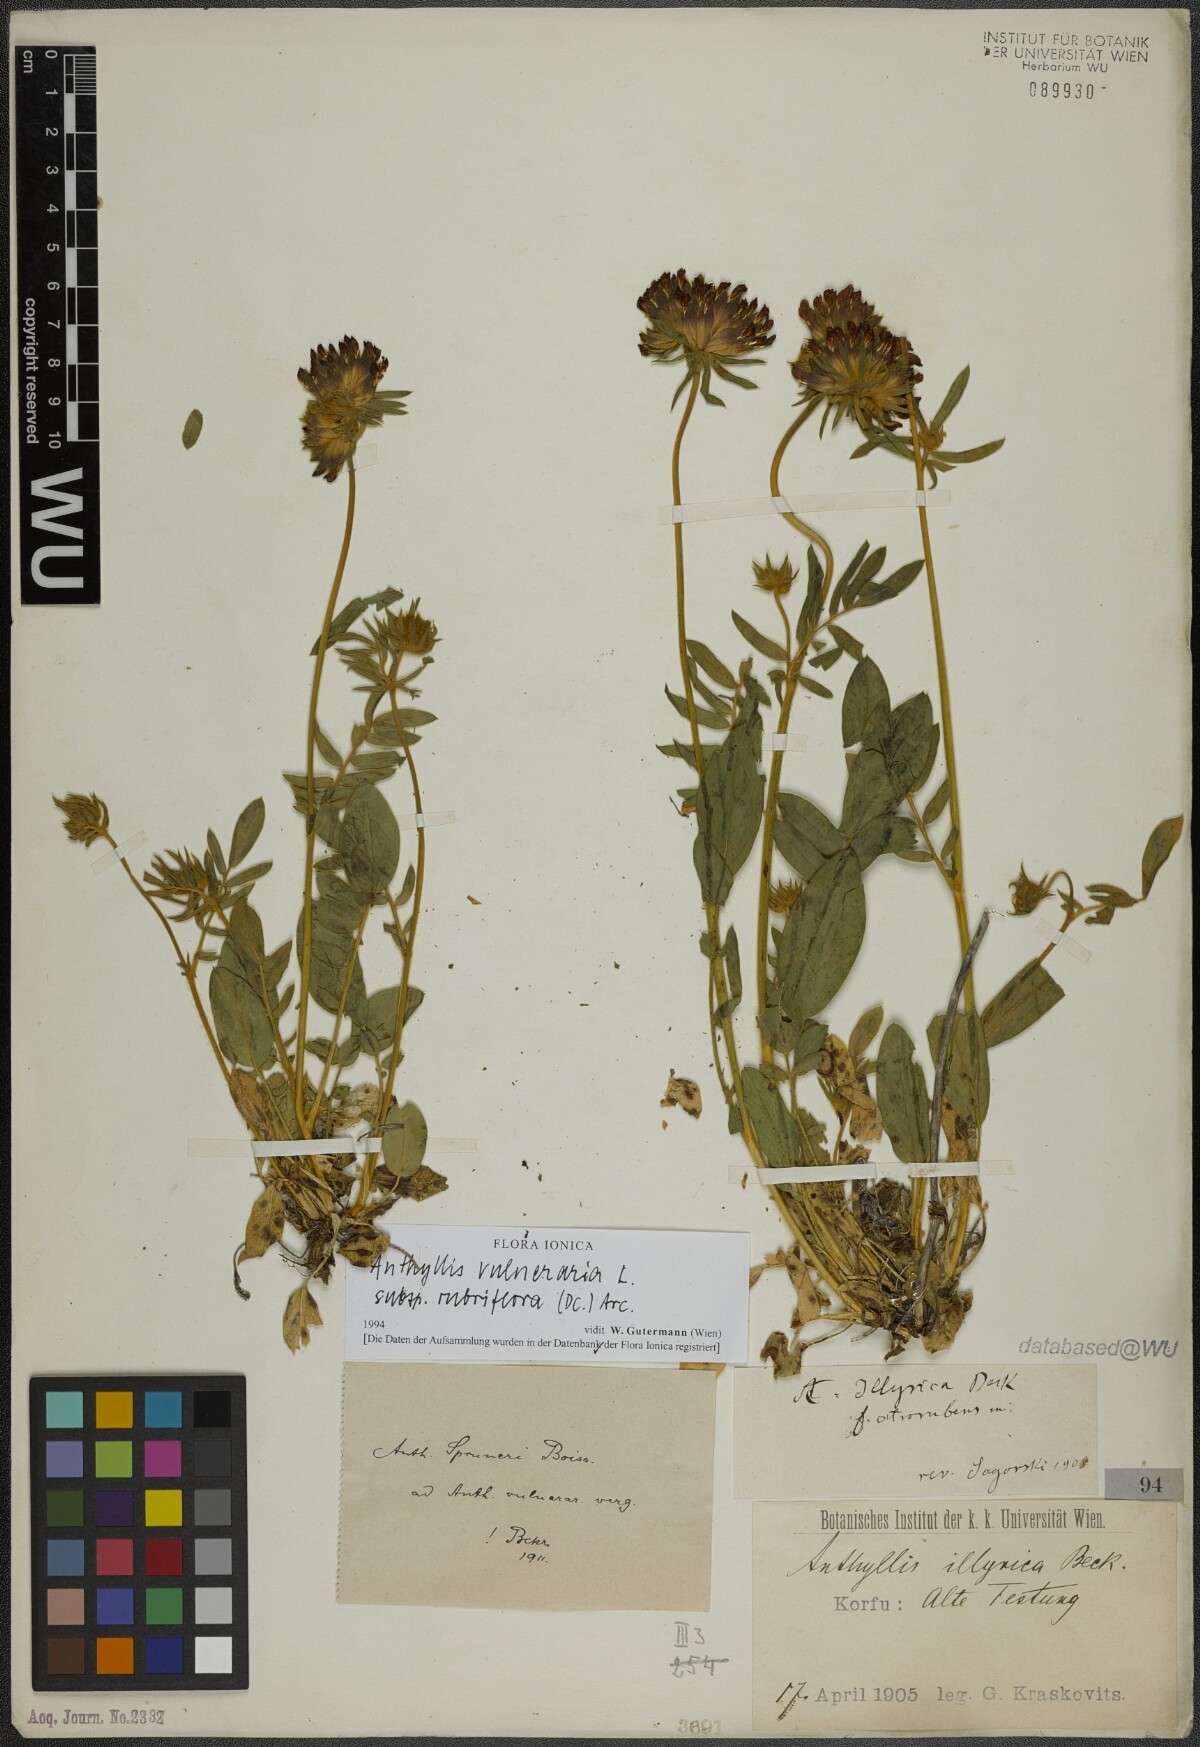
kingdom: Plantae
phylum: Tracheophyta
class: Magnoliopsida
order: Fabales
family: Fabaceae
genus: Anthyllis
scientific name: Anthyllis vulneraria
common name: Kidney vetch
